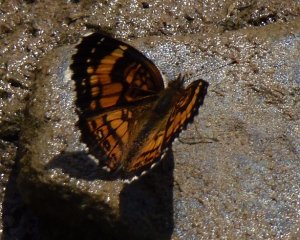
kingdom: Animalia
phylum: Arthropoda
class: Insecta
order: Lepidoptera
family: Nymphalidae
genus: Chlosyne
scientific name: Chlosyne nycteis
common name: Silvery Checkerspot
